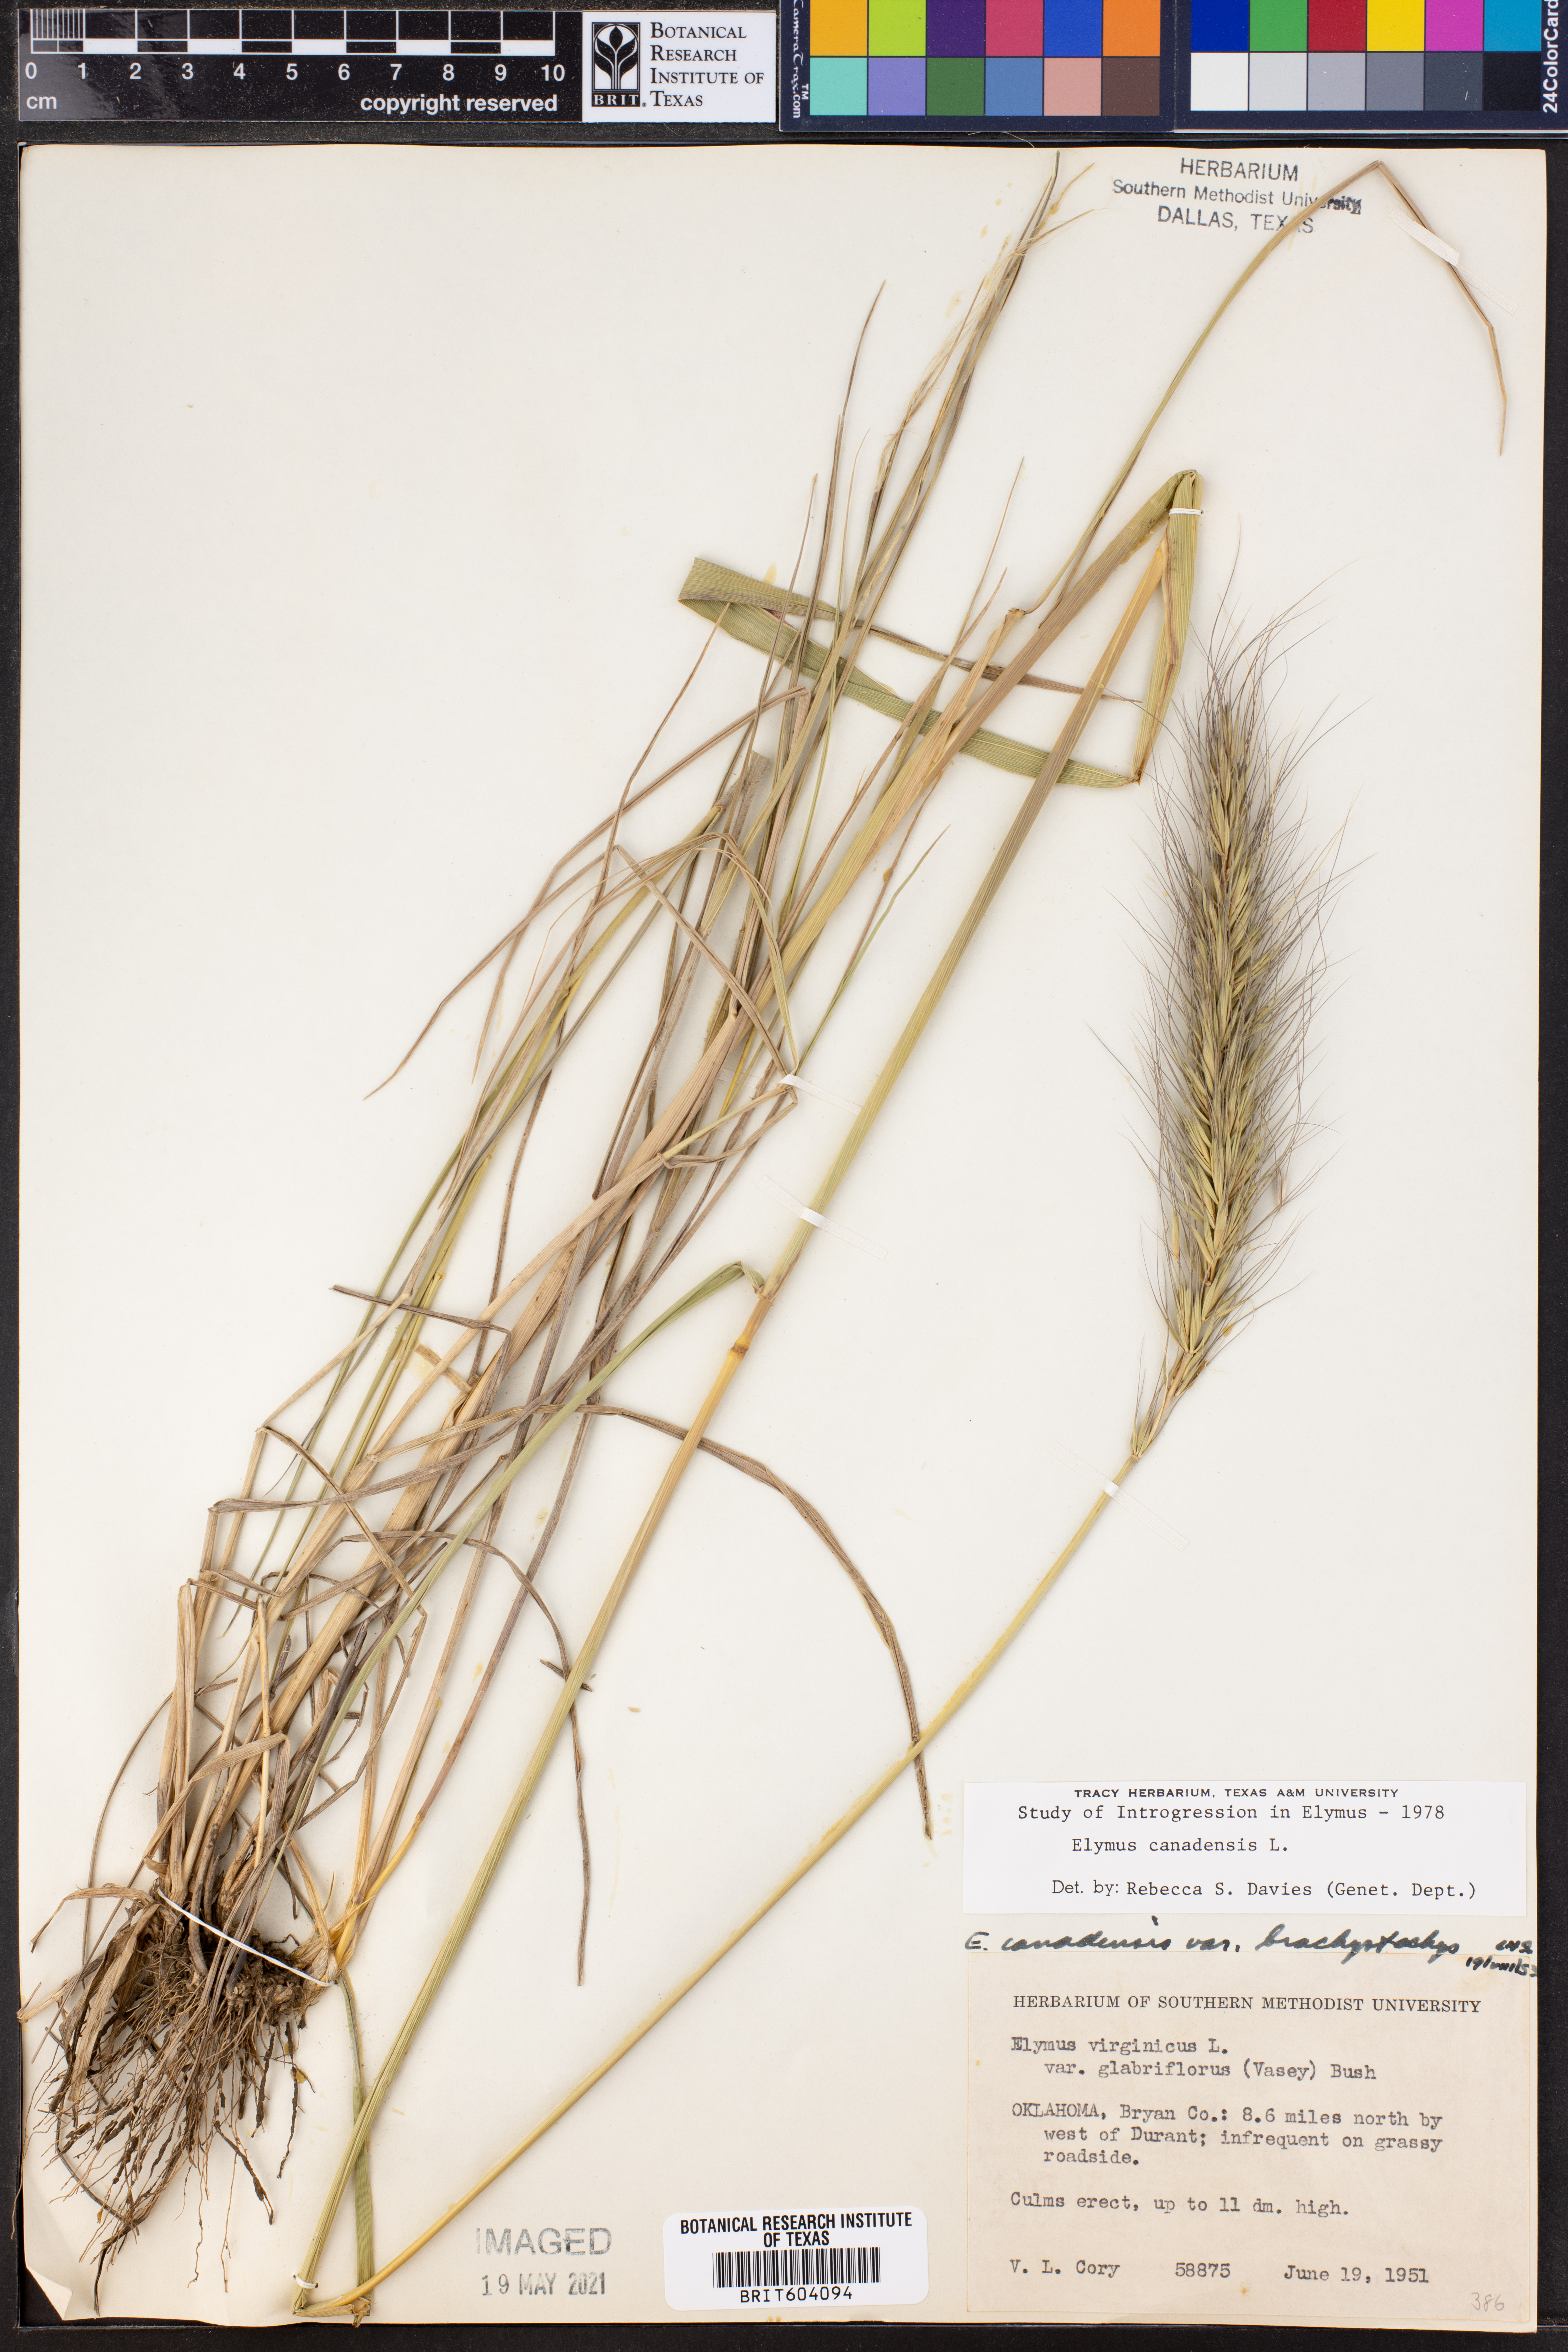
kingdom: Plantae
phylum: Tracheophyta
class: Liliopsida
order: Poales
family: Poaceae
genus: Elymus
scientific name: Elymus canadensis
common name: Canada wild rye
